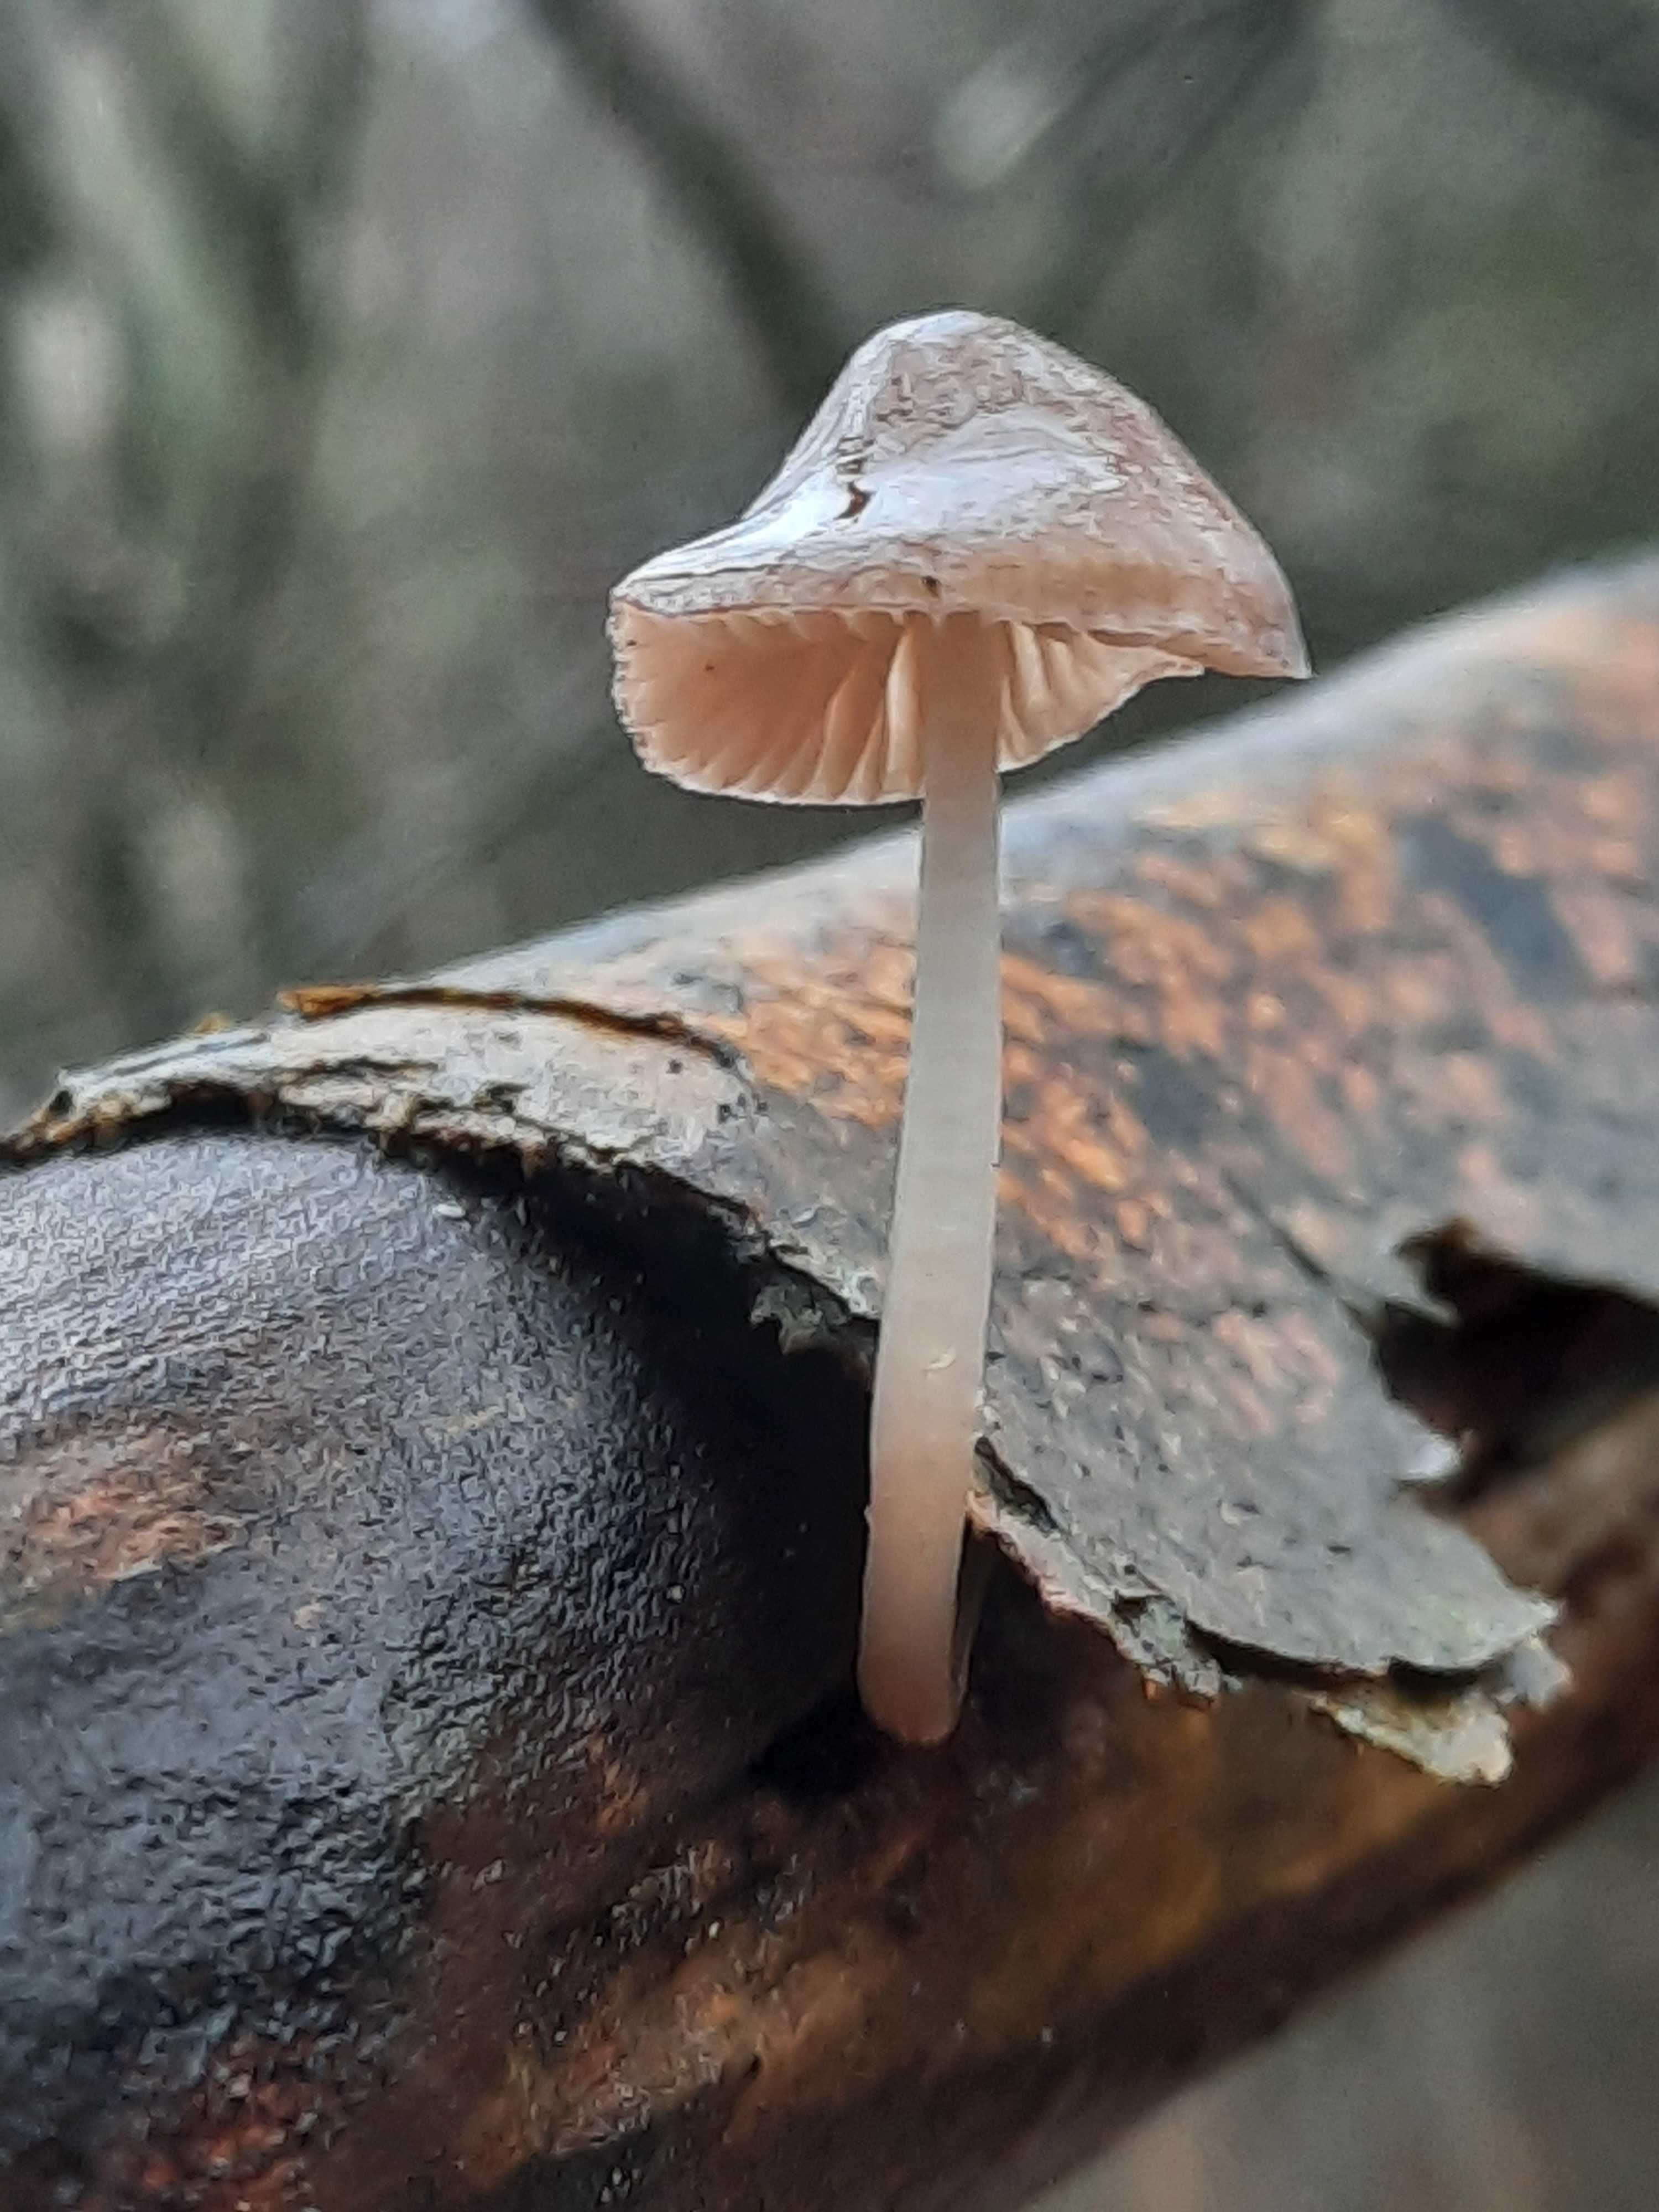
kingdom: Fungi
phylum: Basidiomycota
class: Agaricomycetes
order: Agaricales
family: Mycenaceae
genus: Mycena
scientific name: Mycena galericulata
